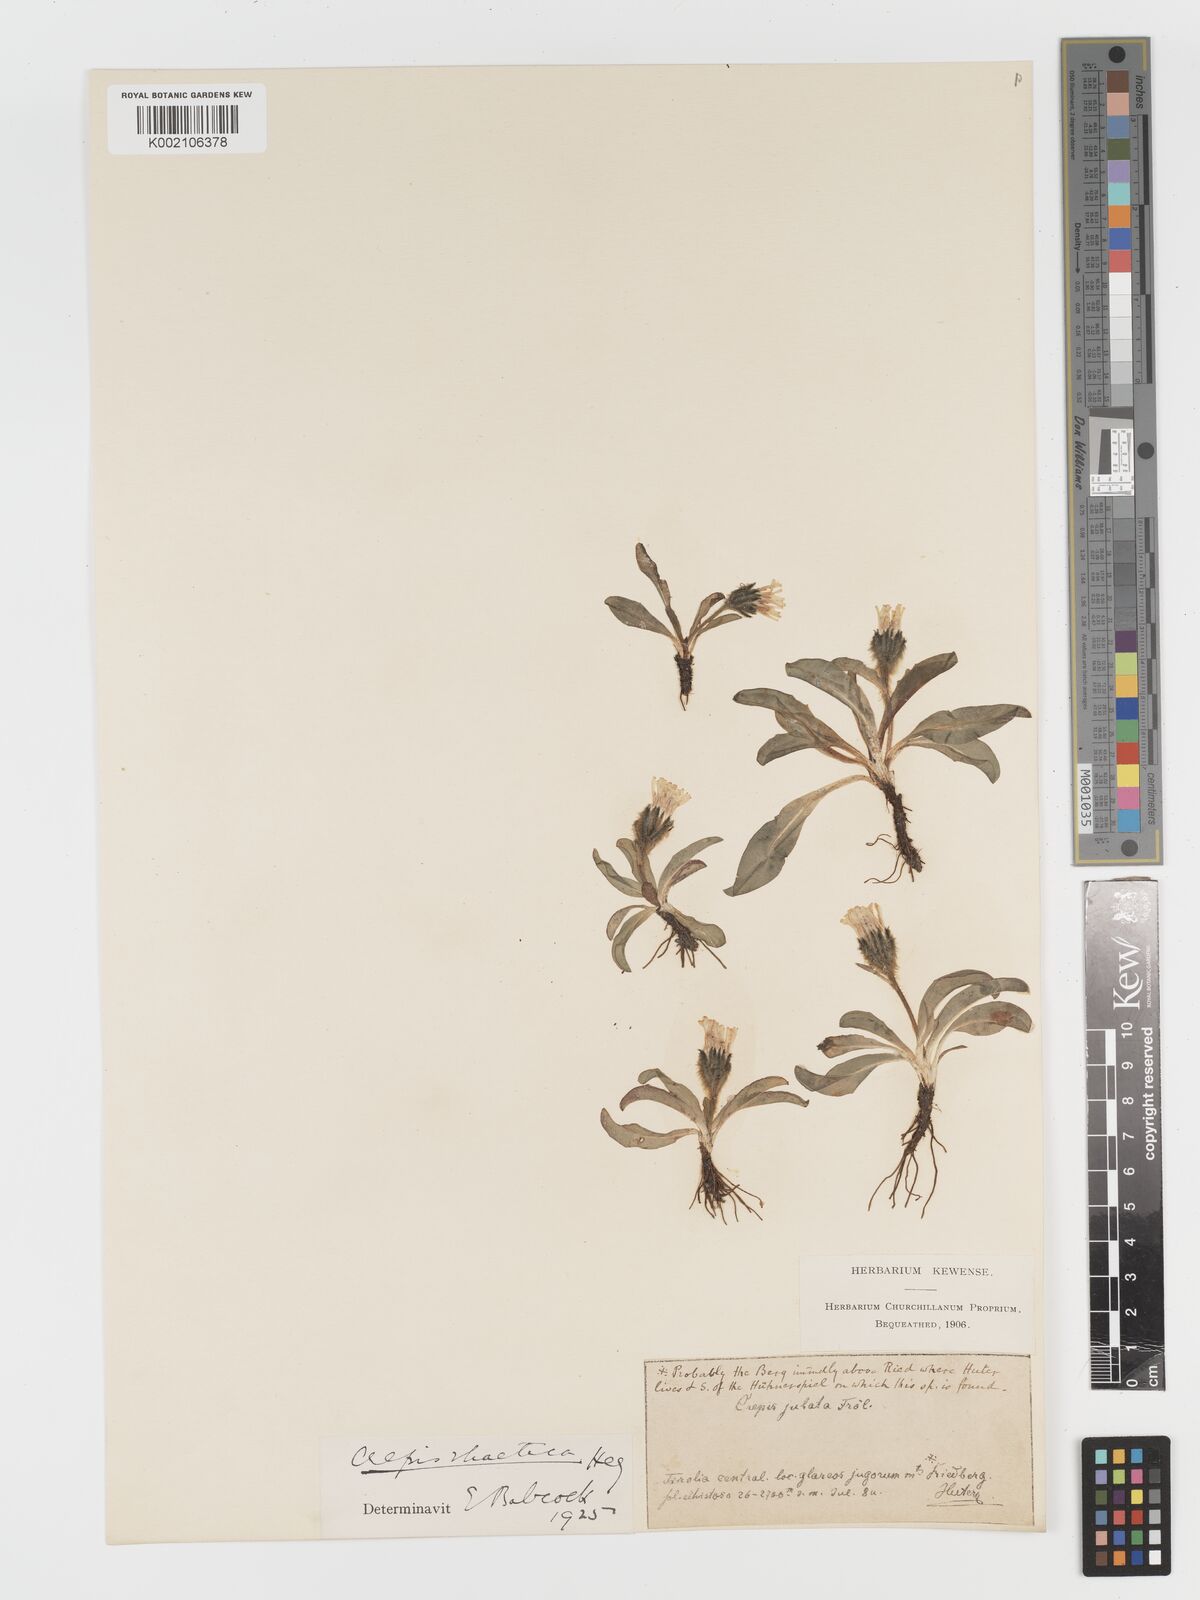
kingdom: Plantae
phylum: Tracheophyta
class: Magnoliopsida
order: Asterales
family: Asteraceae
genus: Crepis
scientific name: Crepis
